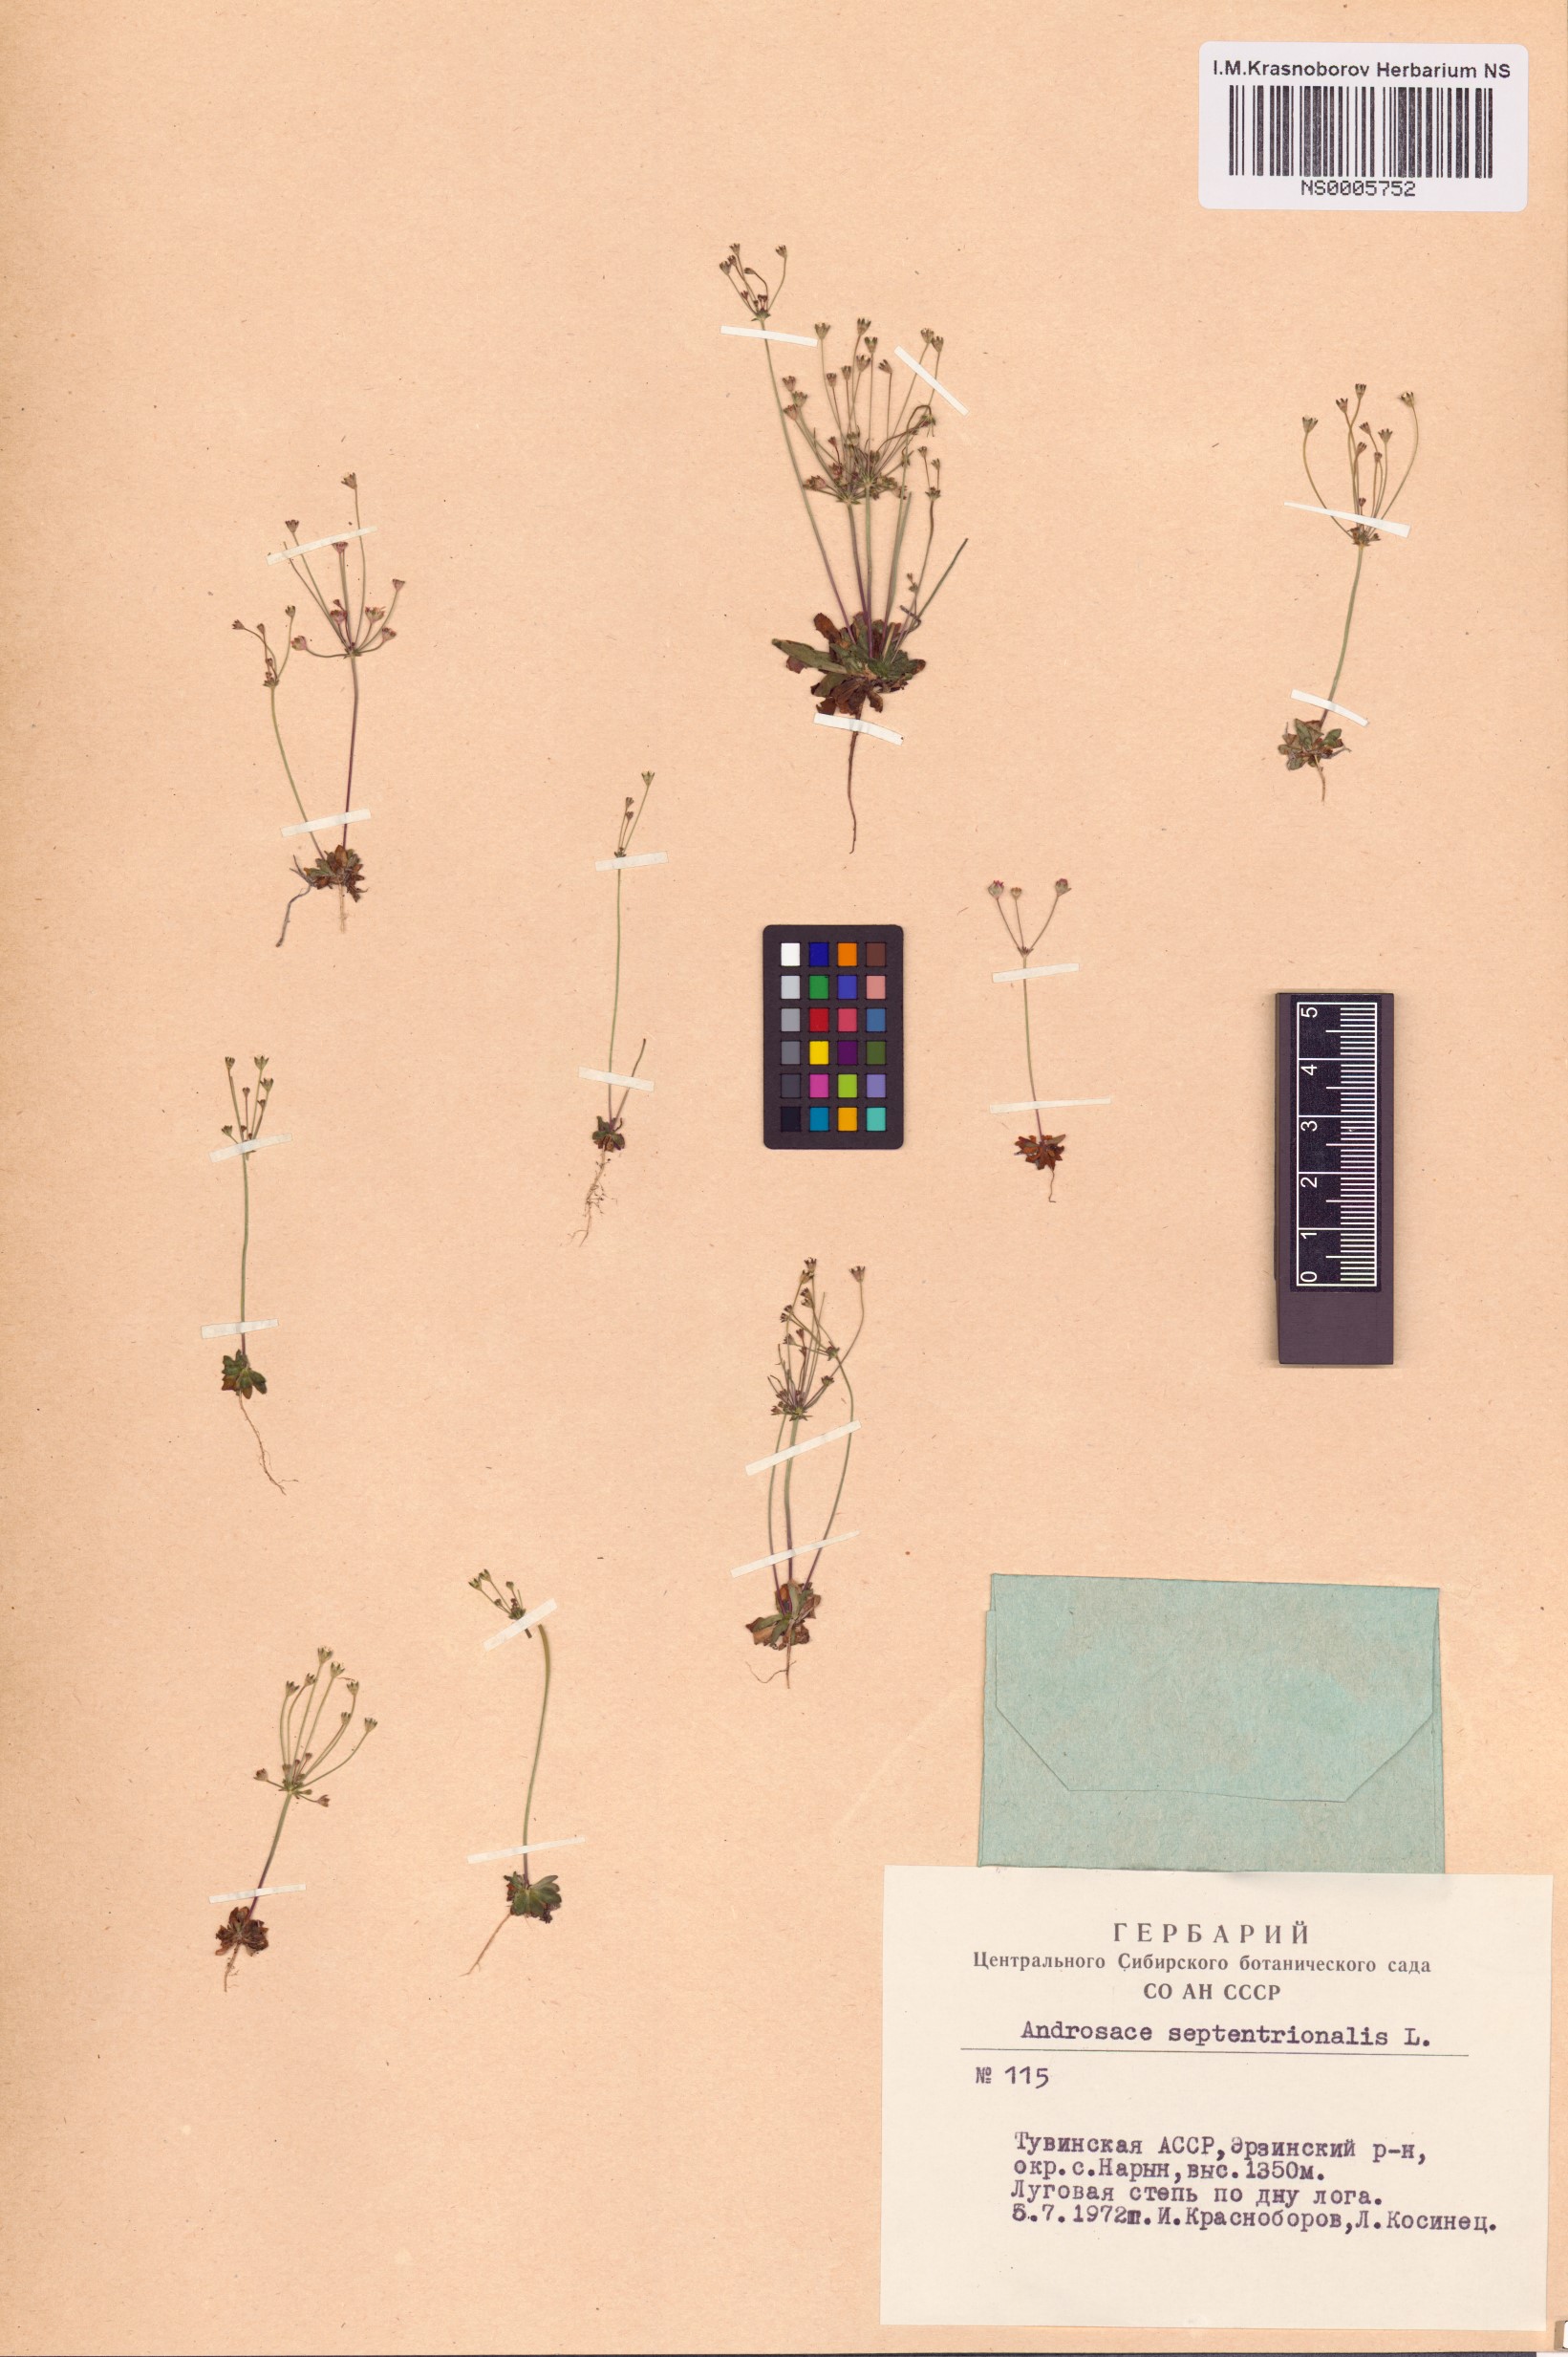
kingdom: Plantae
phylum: Tracheophyta
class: Magnoliopsida
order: Ericales
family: Primulaceae
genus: Androsace
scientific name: Androsace septentrionalis
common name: Hairy northern fairy-candelabra
